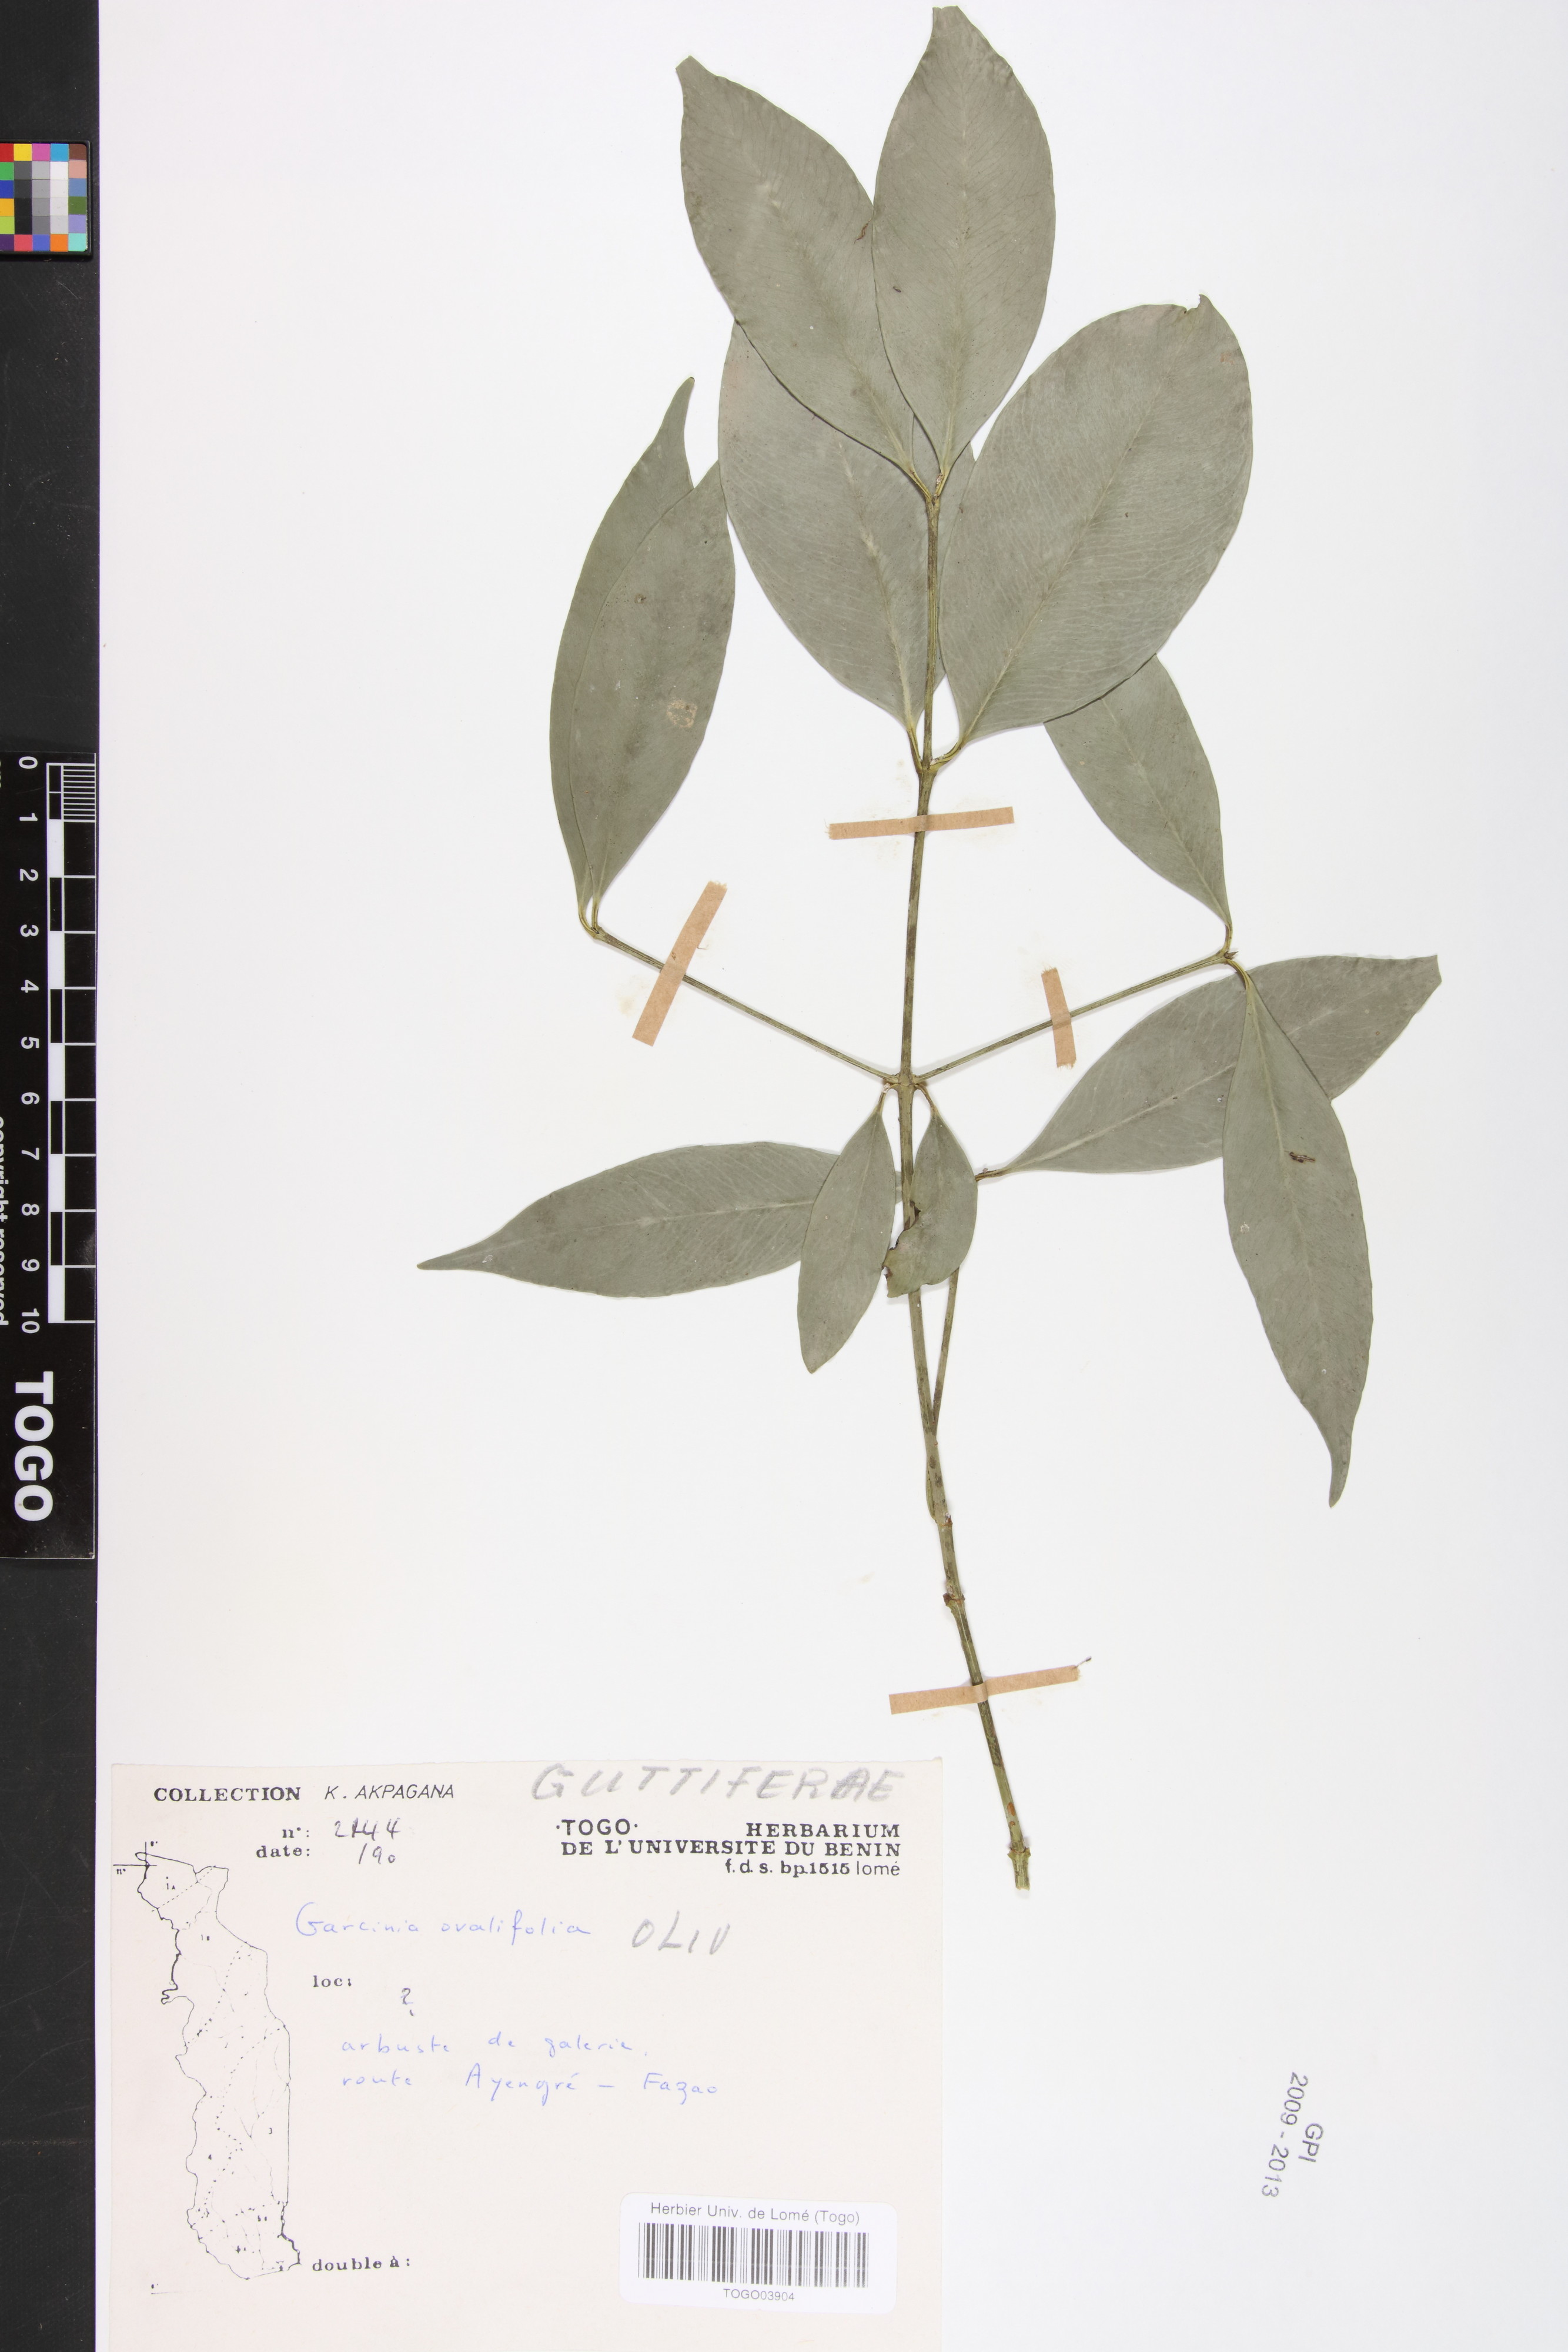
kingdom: Plantae
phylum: Tracheophyta
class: Magnoliopsida
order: Malpighiales
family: Clusiaceae
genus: Garcinia
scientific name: Garcinia ovalifolia
